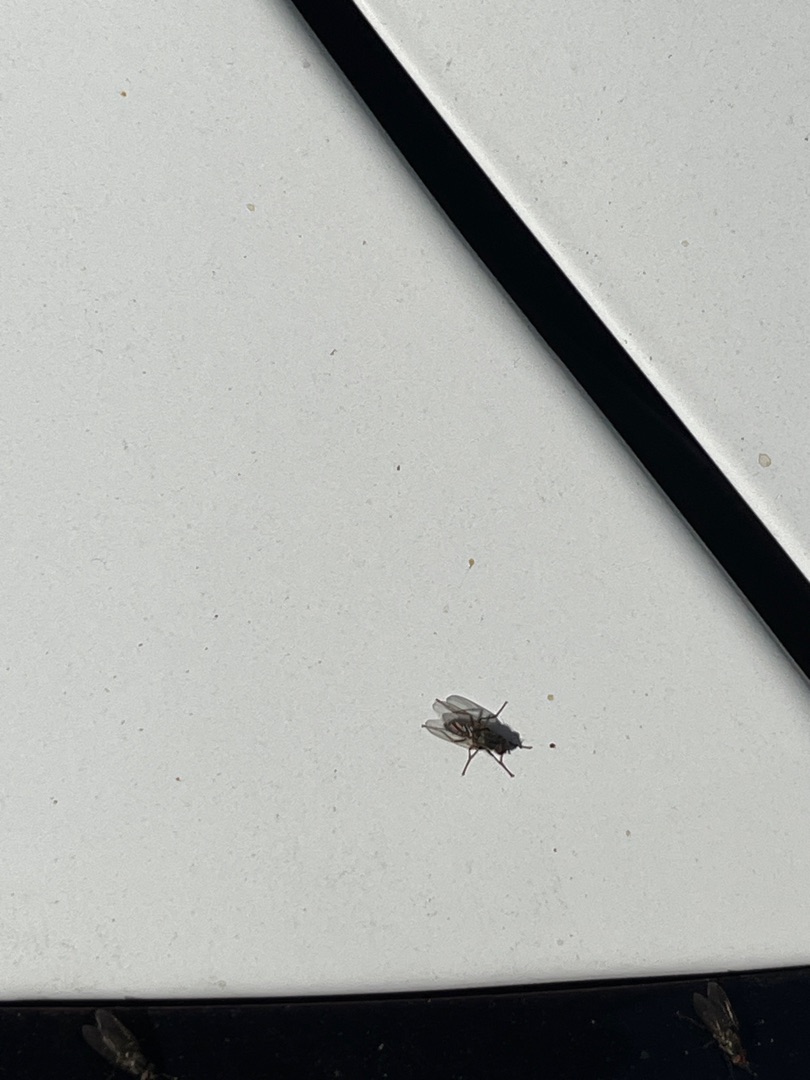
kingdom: Animalia
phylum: Arthropoda
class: Insecta
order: Diptera
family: Anthomyiidae
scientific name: Anthomyiidae
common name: Blomsterfluer
